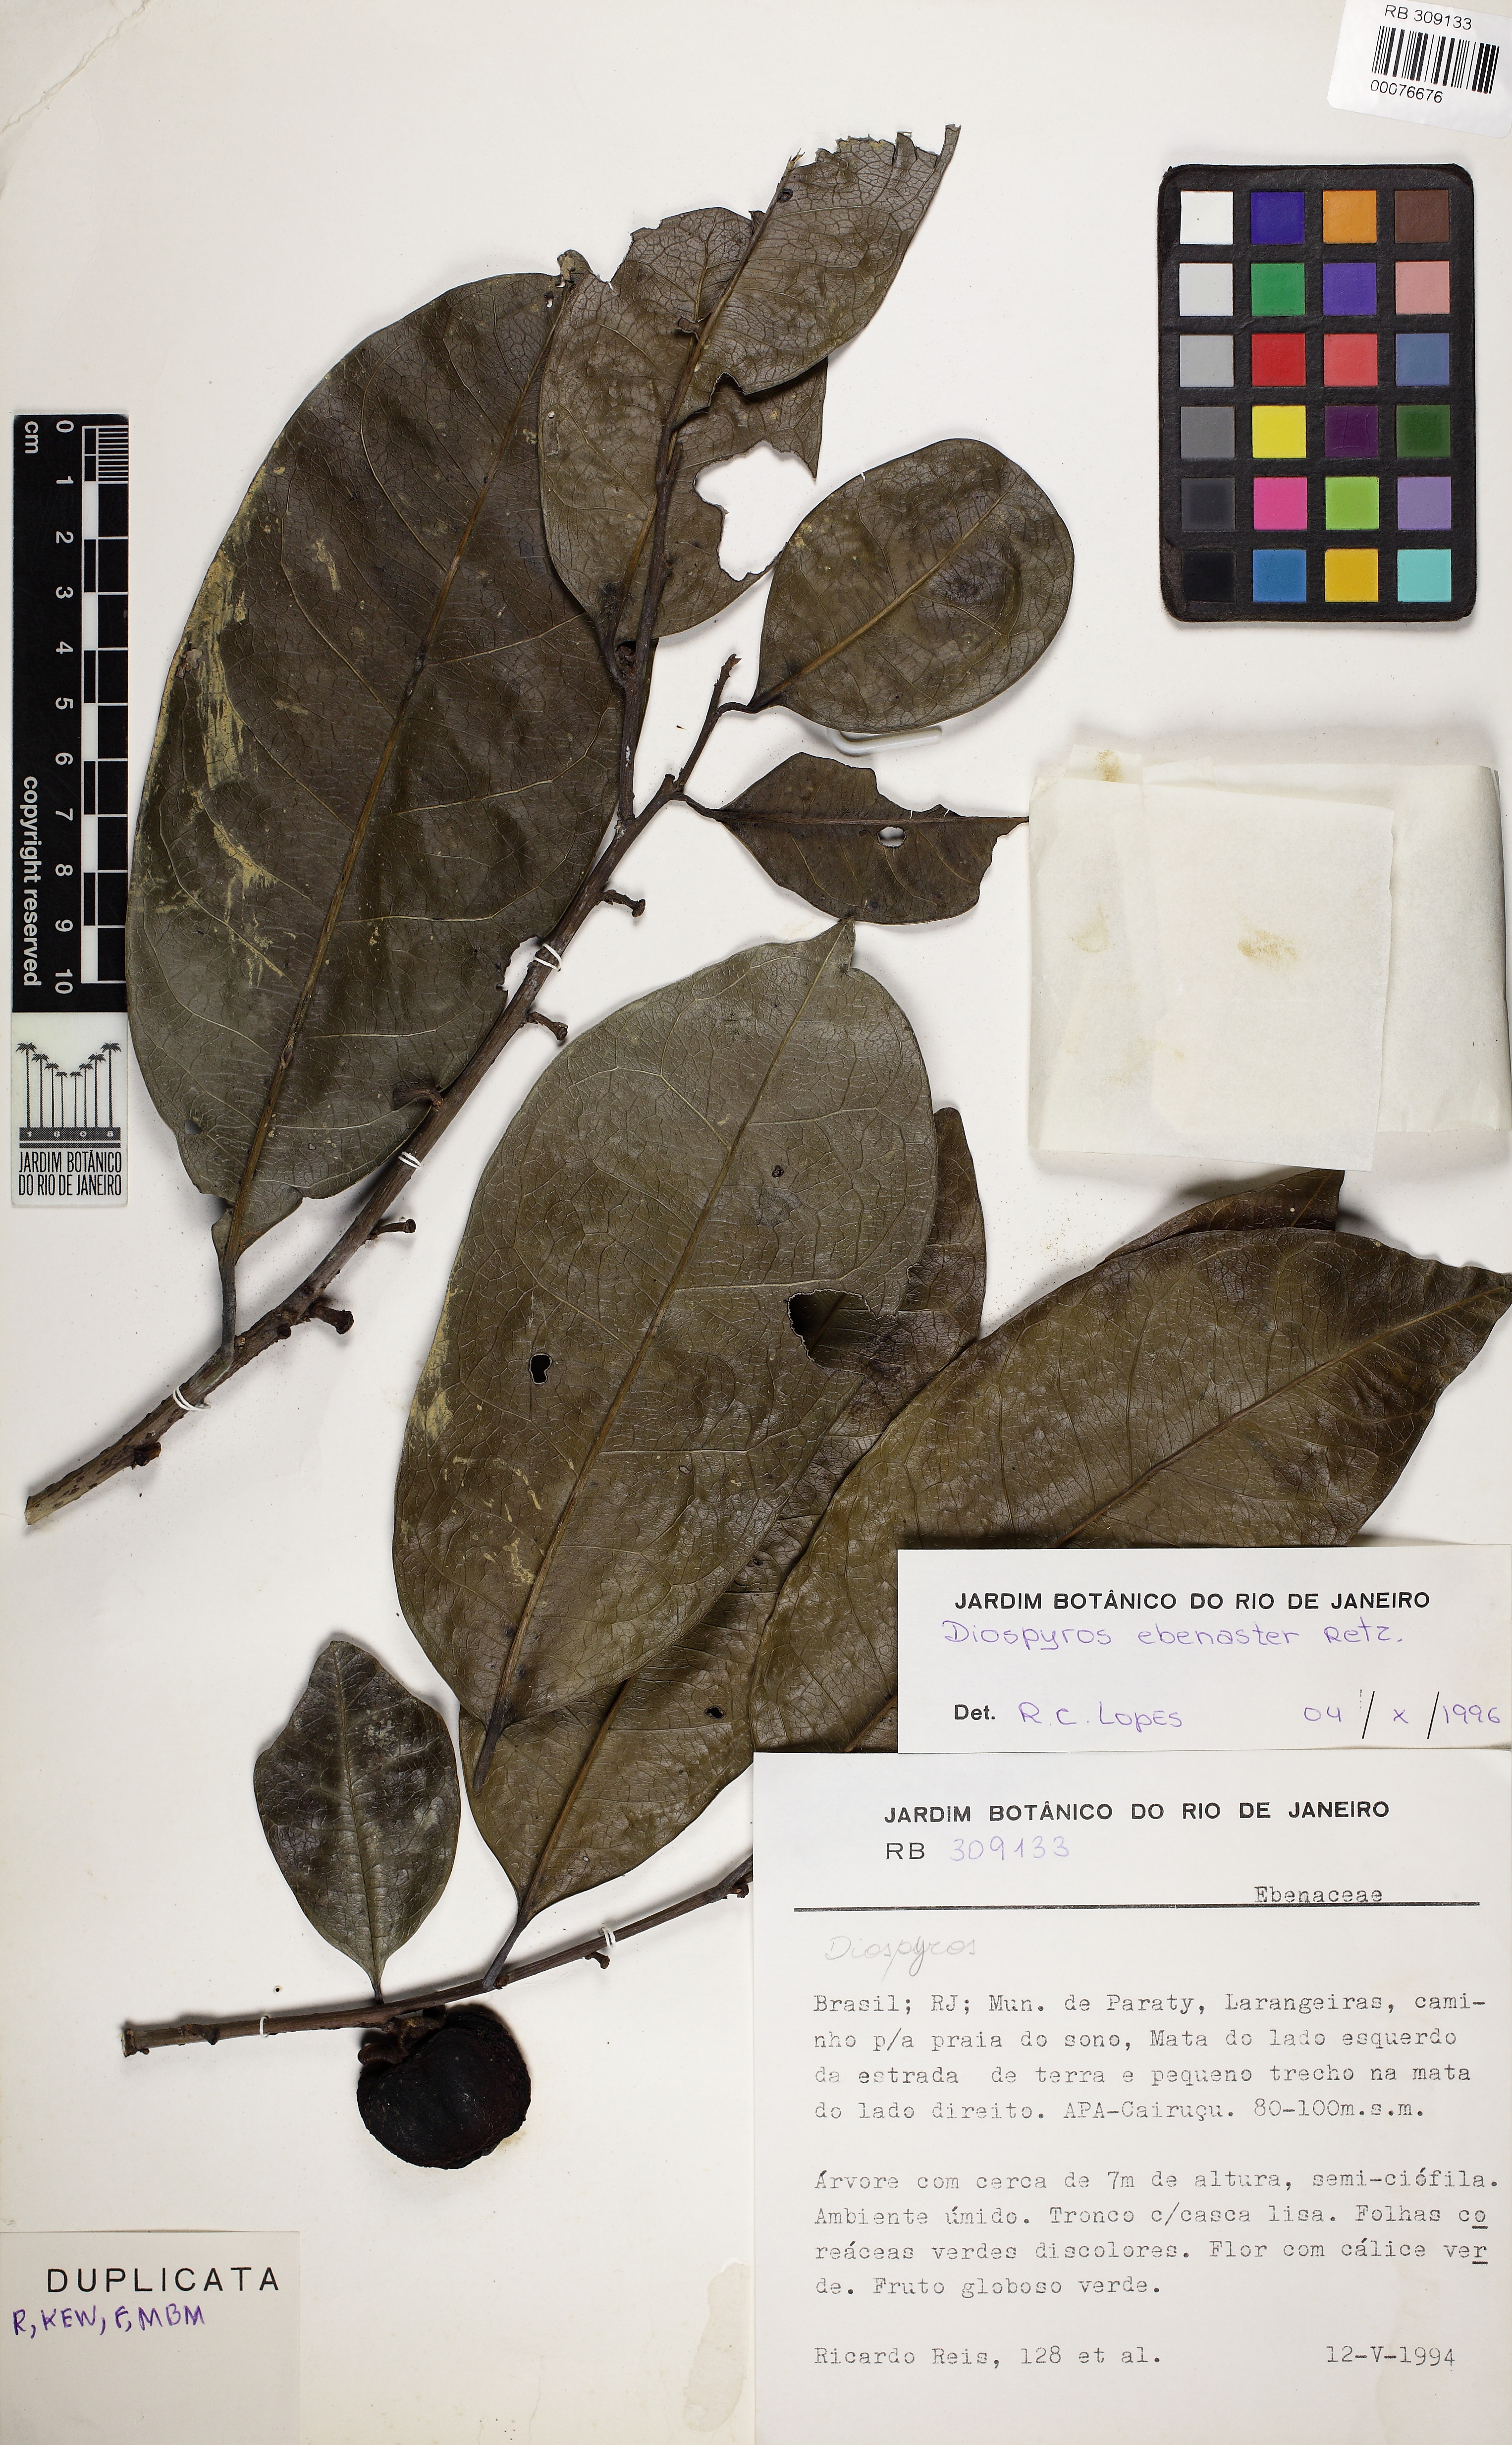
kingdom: Plantae
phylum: Tracheophyta
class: Magnoliopsida
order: Ericales
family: Ebenaceae
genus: Diospyros
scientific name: Diospyros ebenaster
